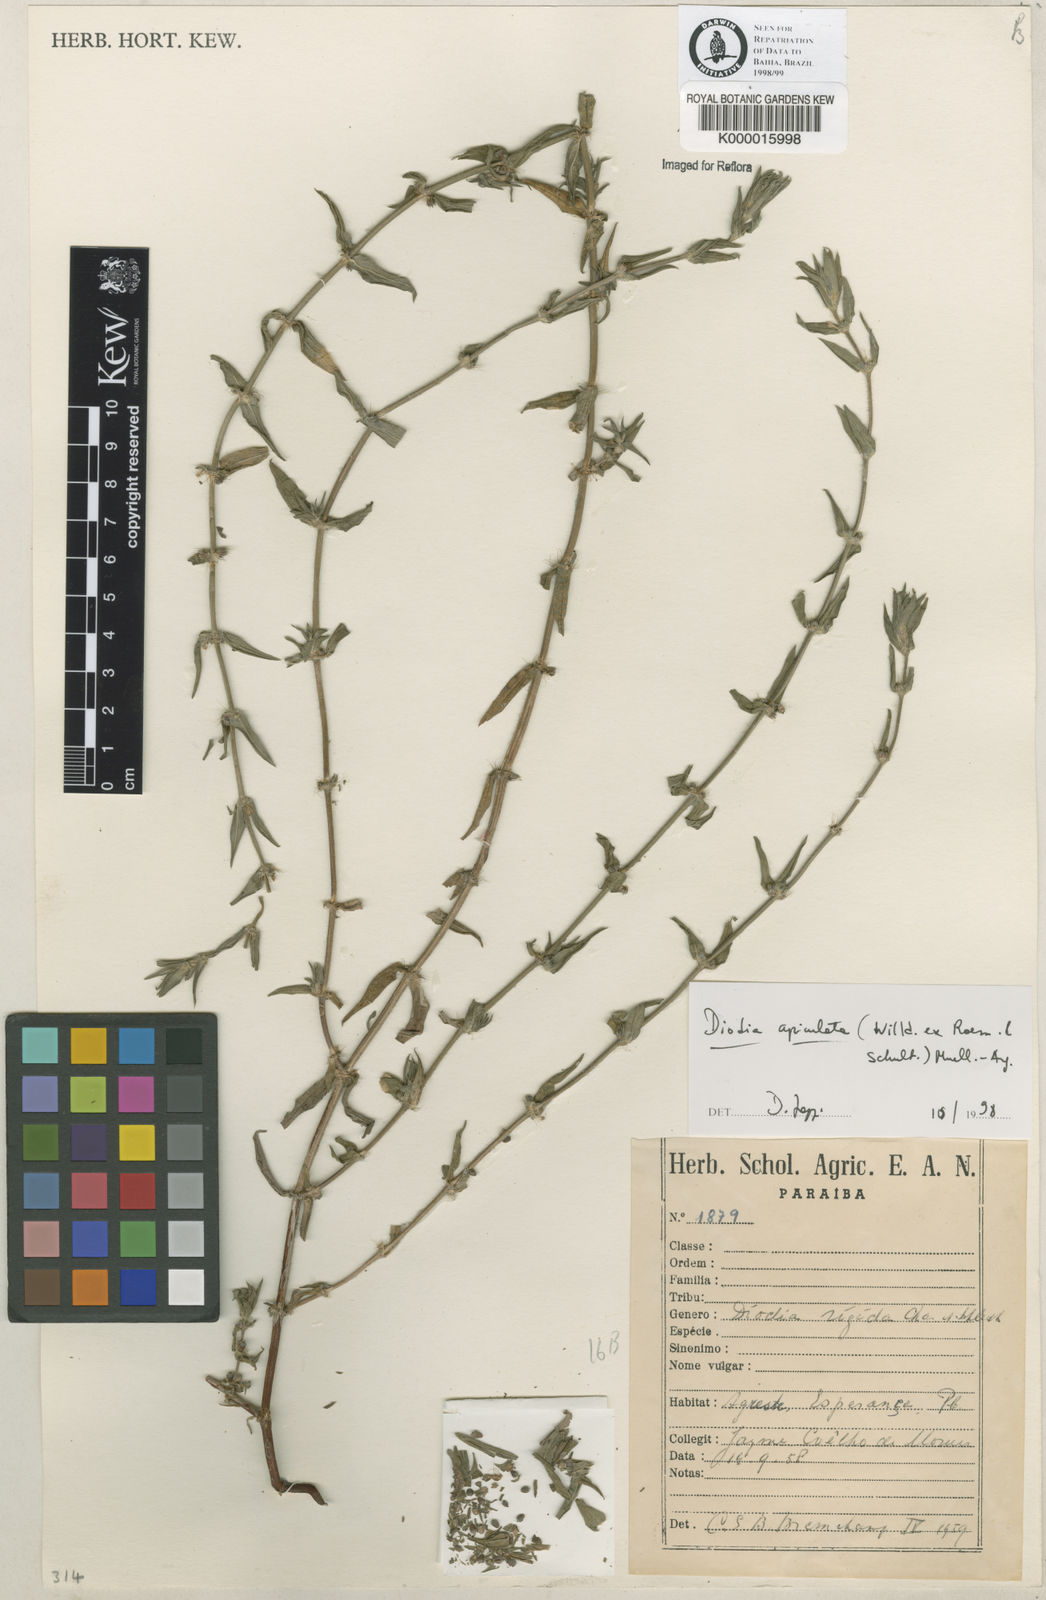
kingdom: Plantae
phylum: Tracheophyta
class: Magnoliopsida
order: Gentianales
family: Rubiaceae
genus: Hexasepalum
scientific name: Hexasepalum apiculatum
